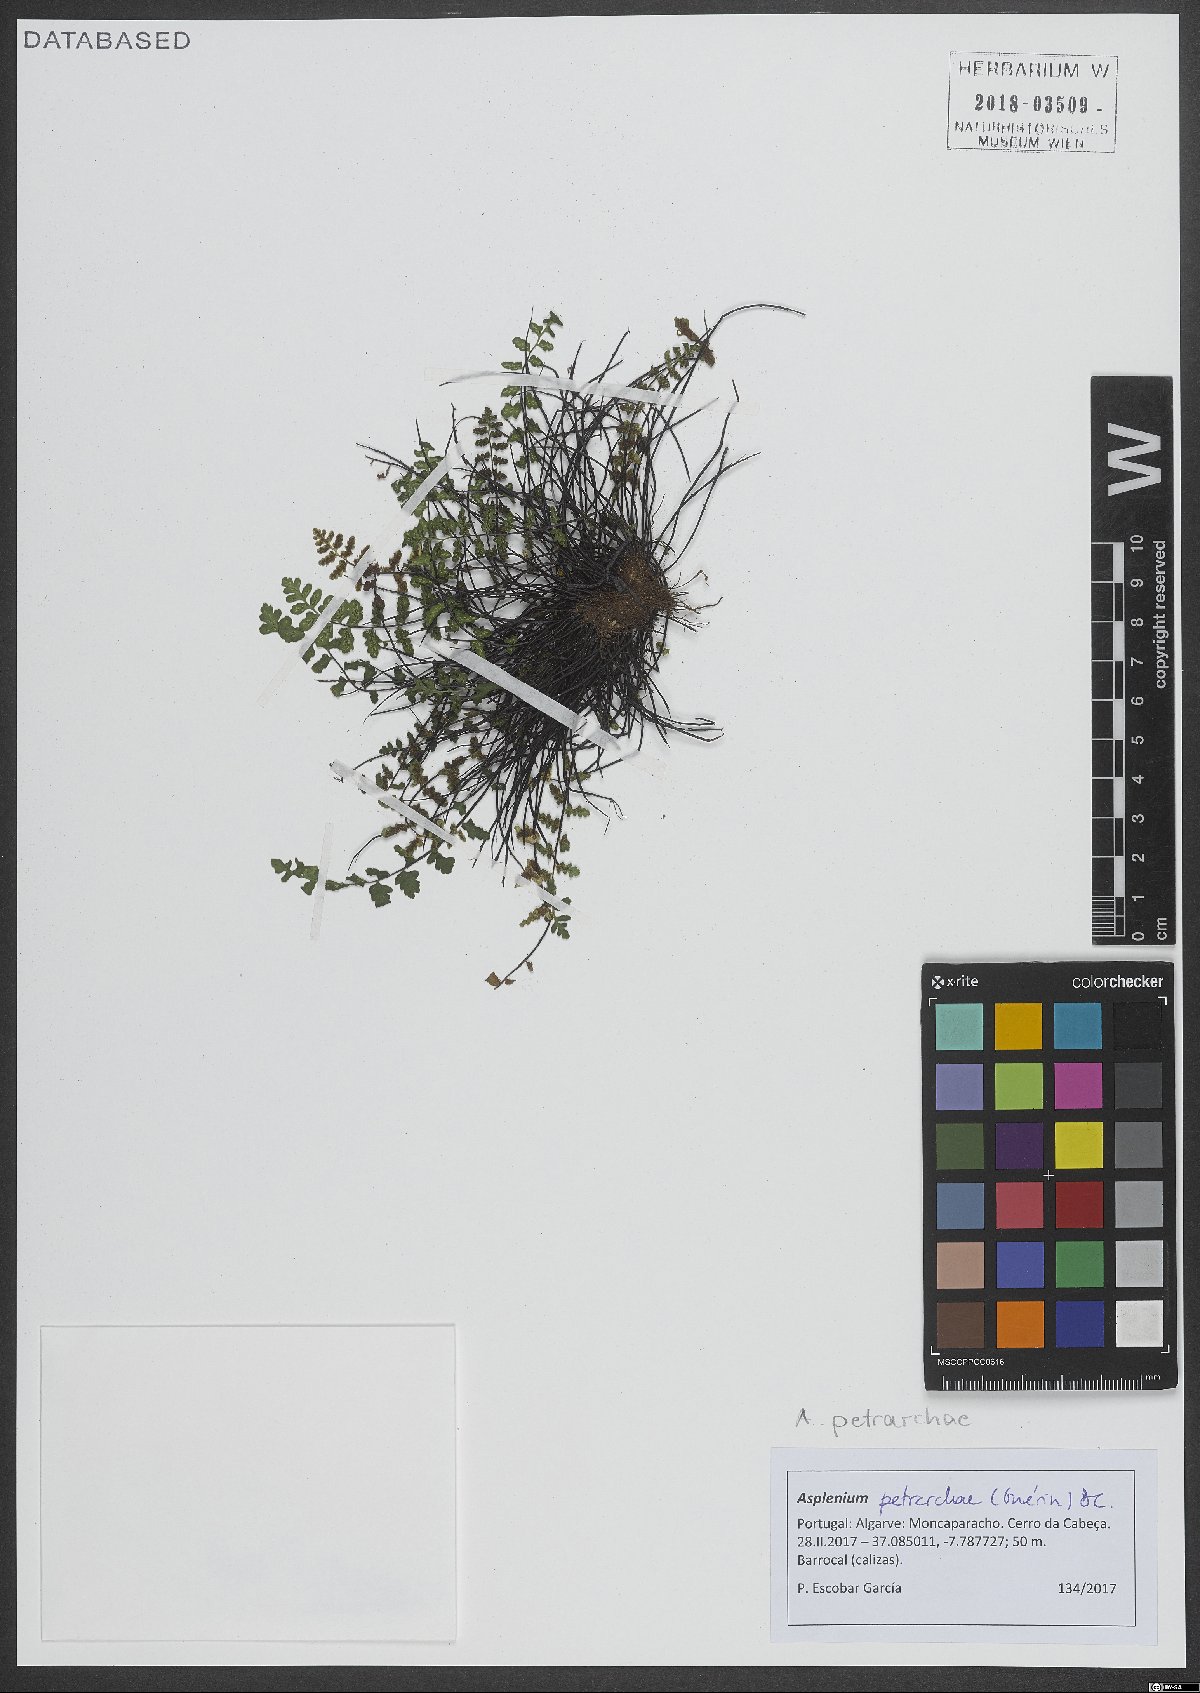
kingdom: Plantae
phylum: Tracheophyta
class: Polypodiopsida
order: Polypodiales
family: Aspleniaceae
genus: Asplenium
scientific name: Asplenium petrarchae
